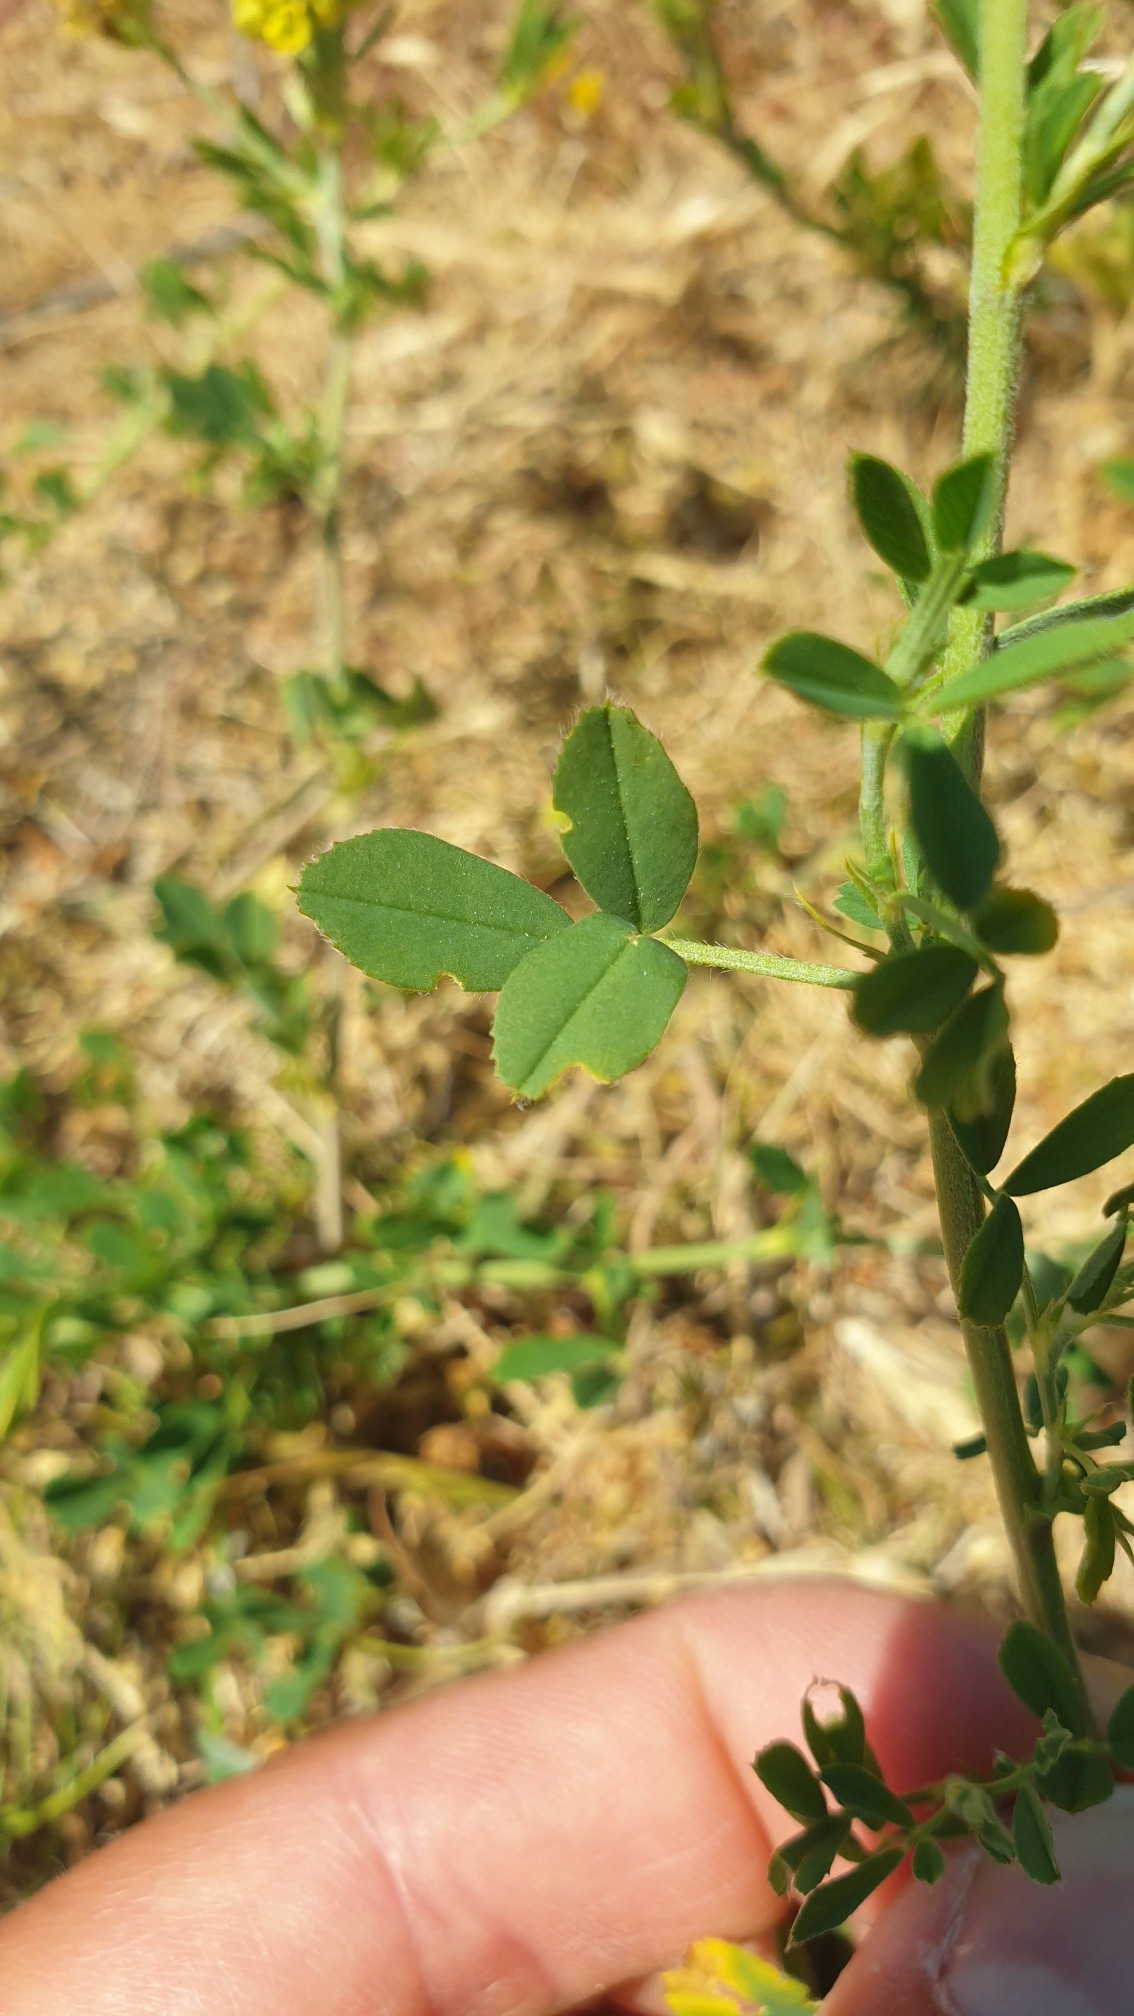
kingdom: Plantae
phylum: Tracheophyta
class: Magnoliopsida
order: Fabales
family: Fabaceae
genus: Medicago
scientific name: Medicago falcata
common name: Segl-sneglebælg
